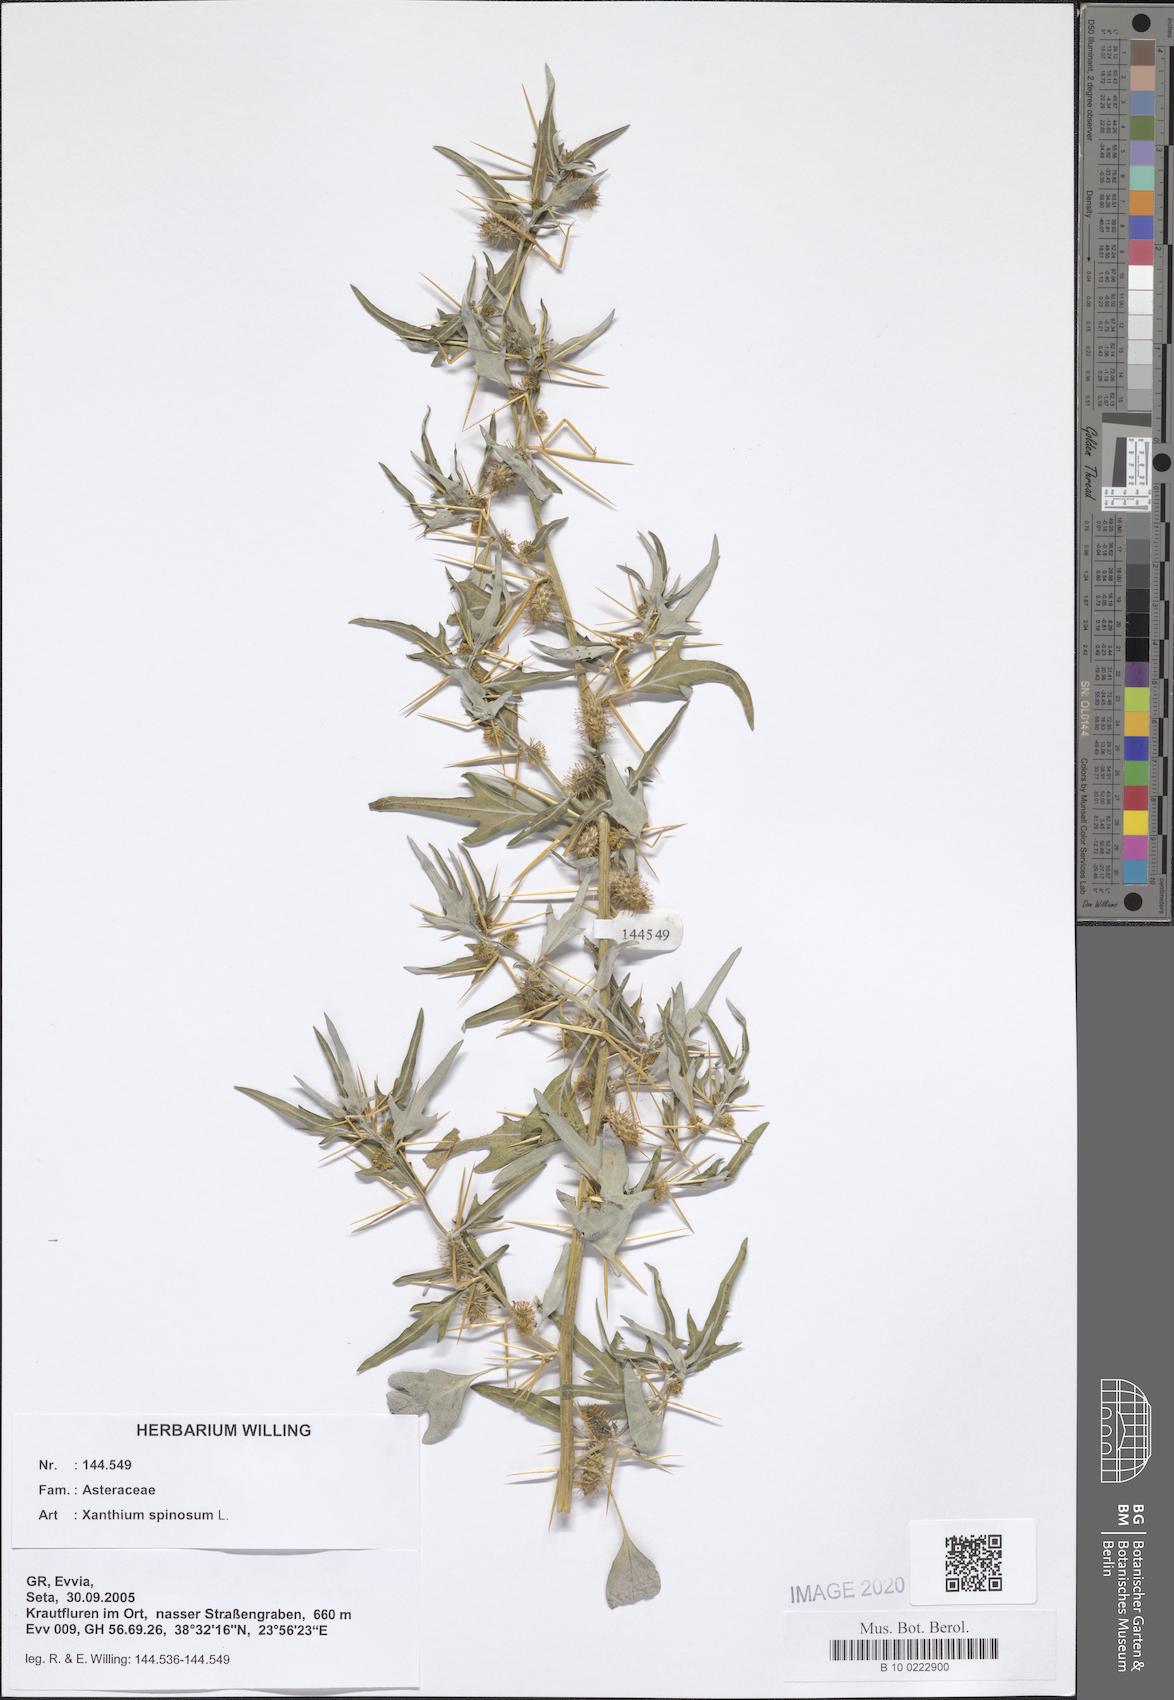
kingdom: Plantae
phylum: Tracheophyta
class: Magnoliopsida
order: Asterales
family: Asteraceae
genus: Xanthium
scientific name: Xanthium spinosum
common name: Spiny cocklebur
